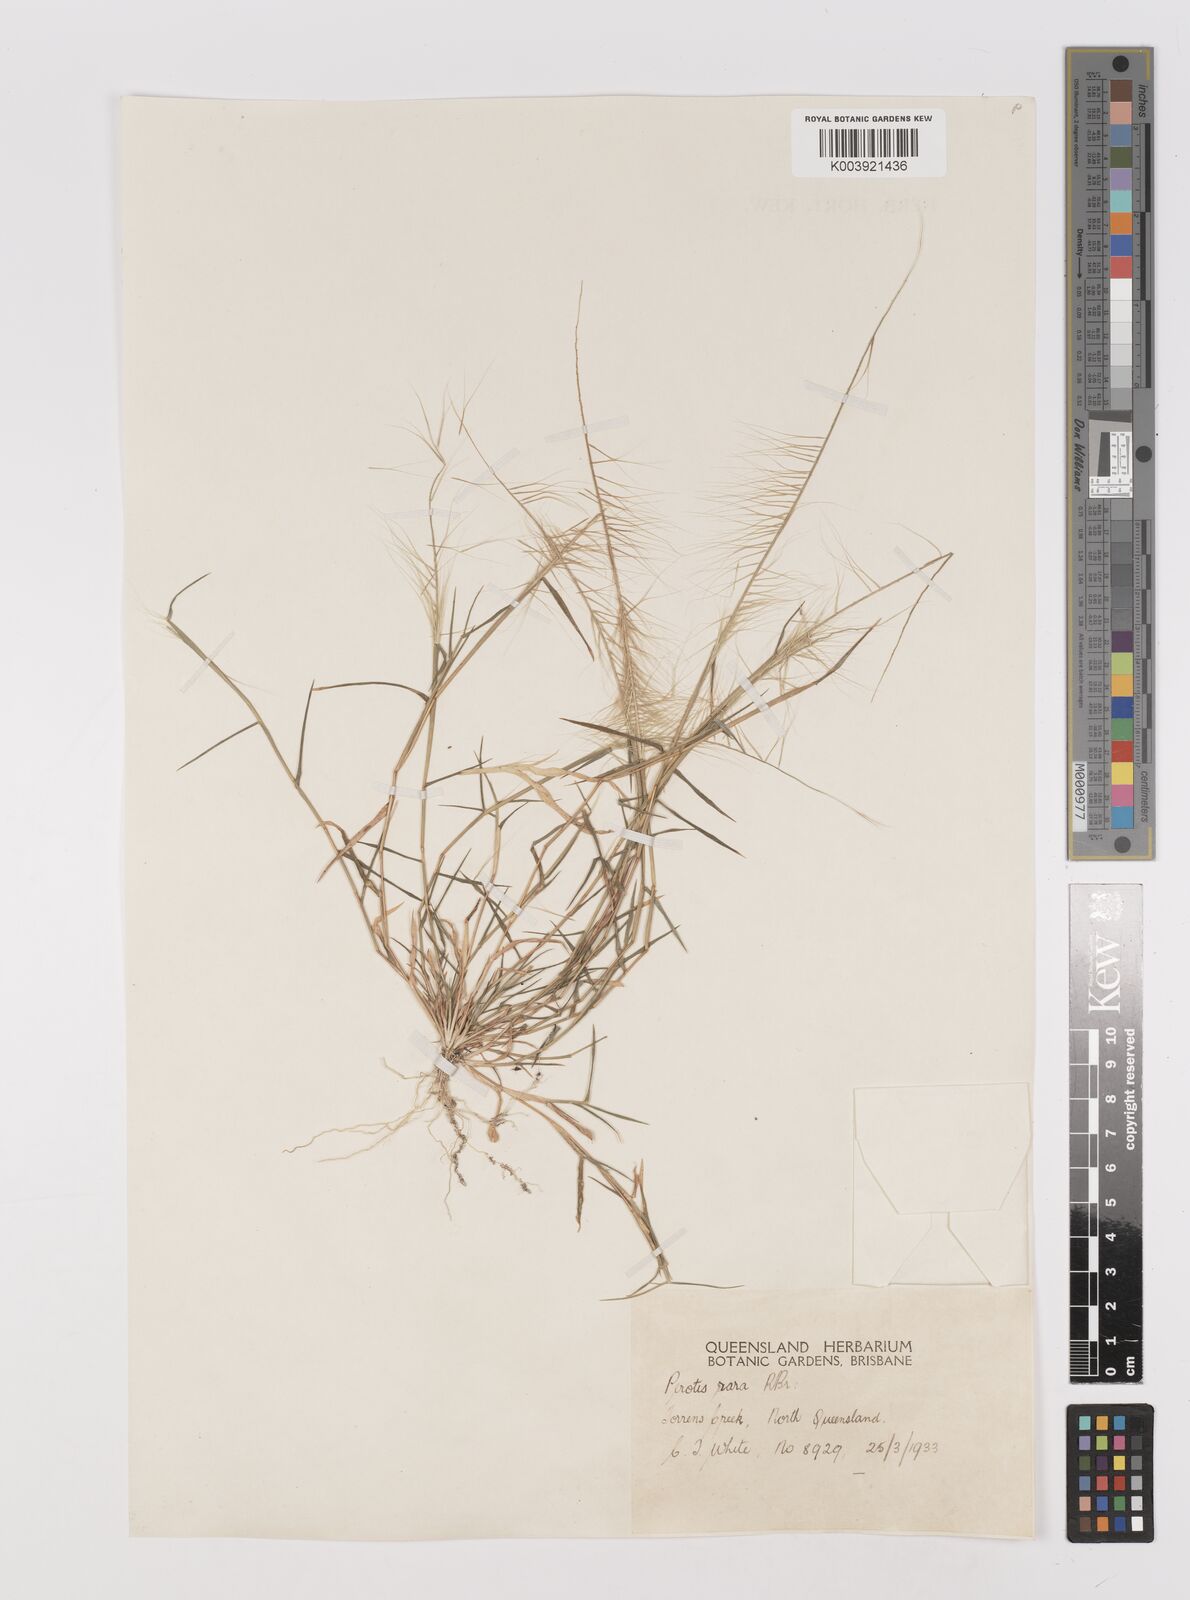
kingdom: Plantae
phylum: Tracheophyta
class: Liliopsida
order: Poales
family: Poaceae
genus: Perotis
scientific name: Perotis rara
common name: Comet grass
